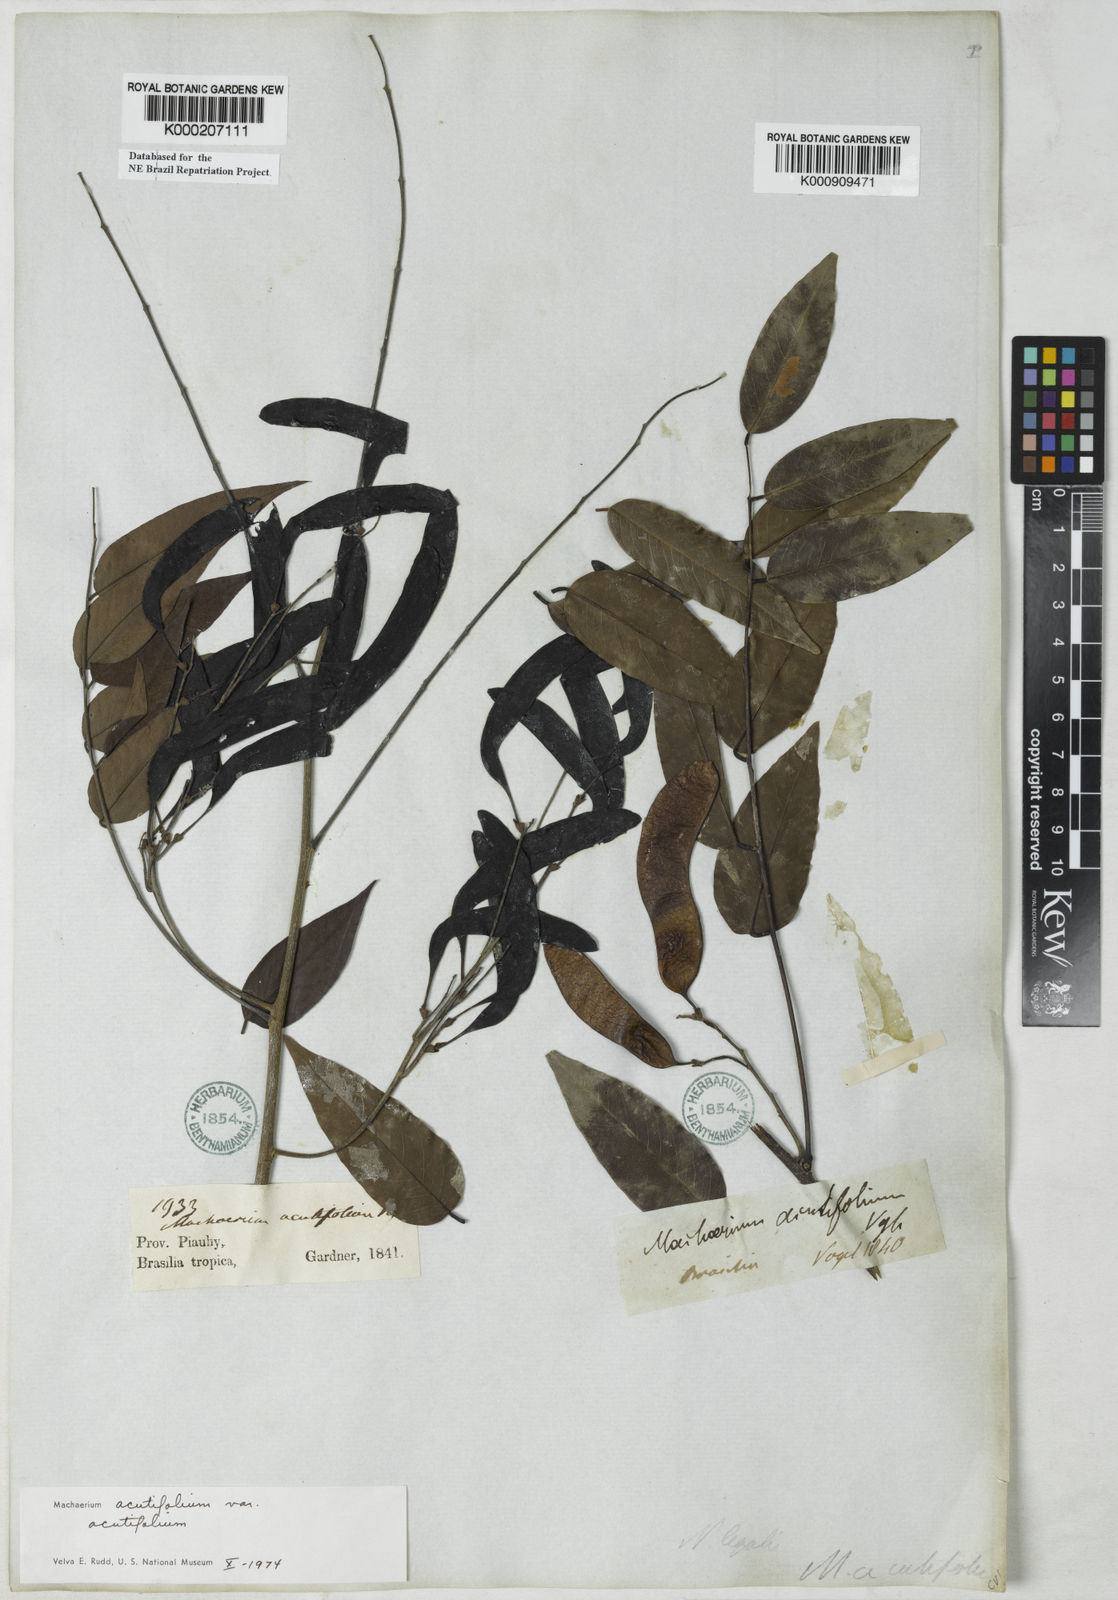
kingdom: Plantae
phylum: Tracheophyta
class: Magnoliopsida
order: Fabales
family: Fabaceae
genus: Machaerium
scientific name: Machaerium acutifolium
